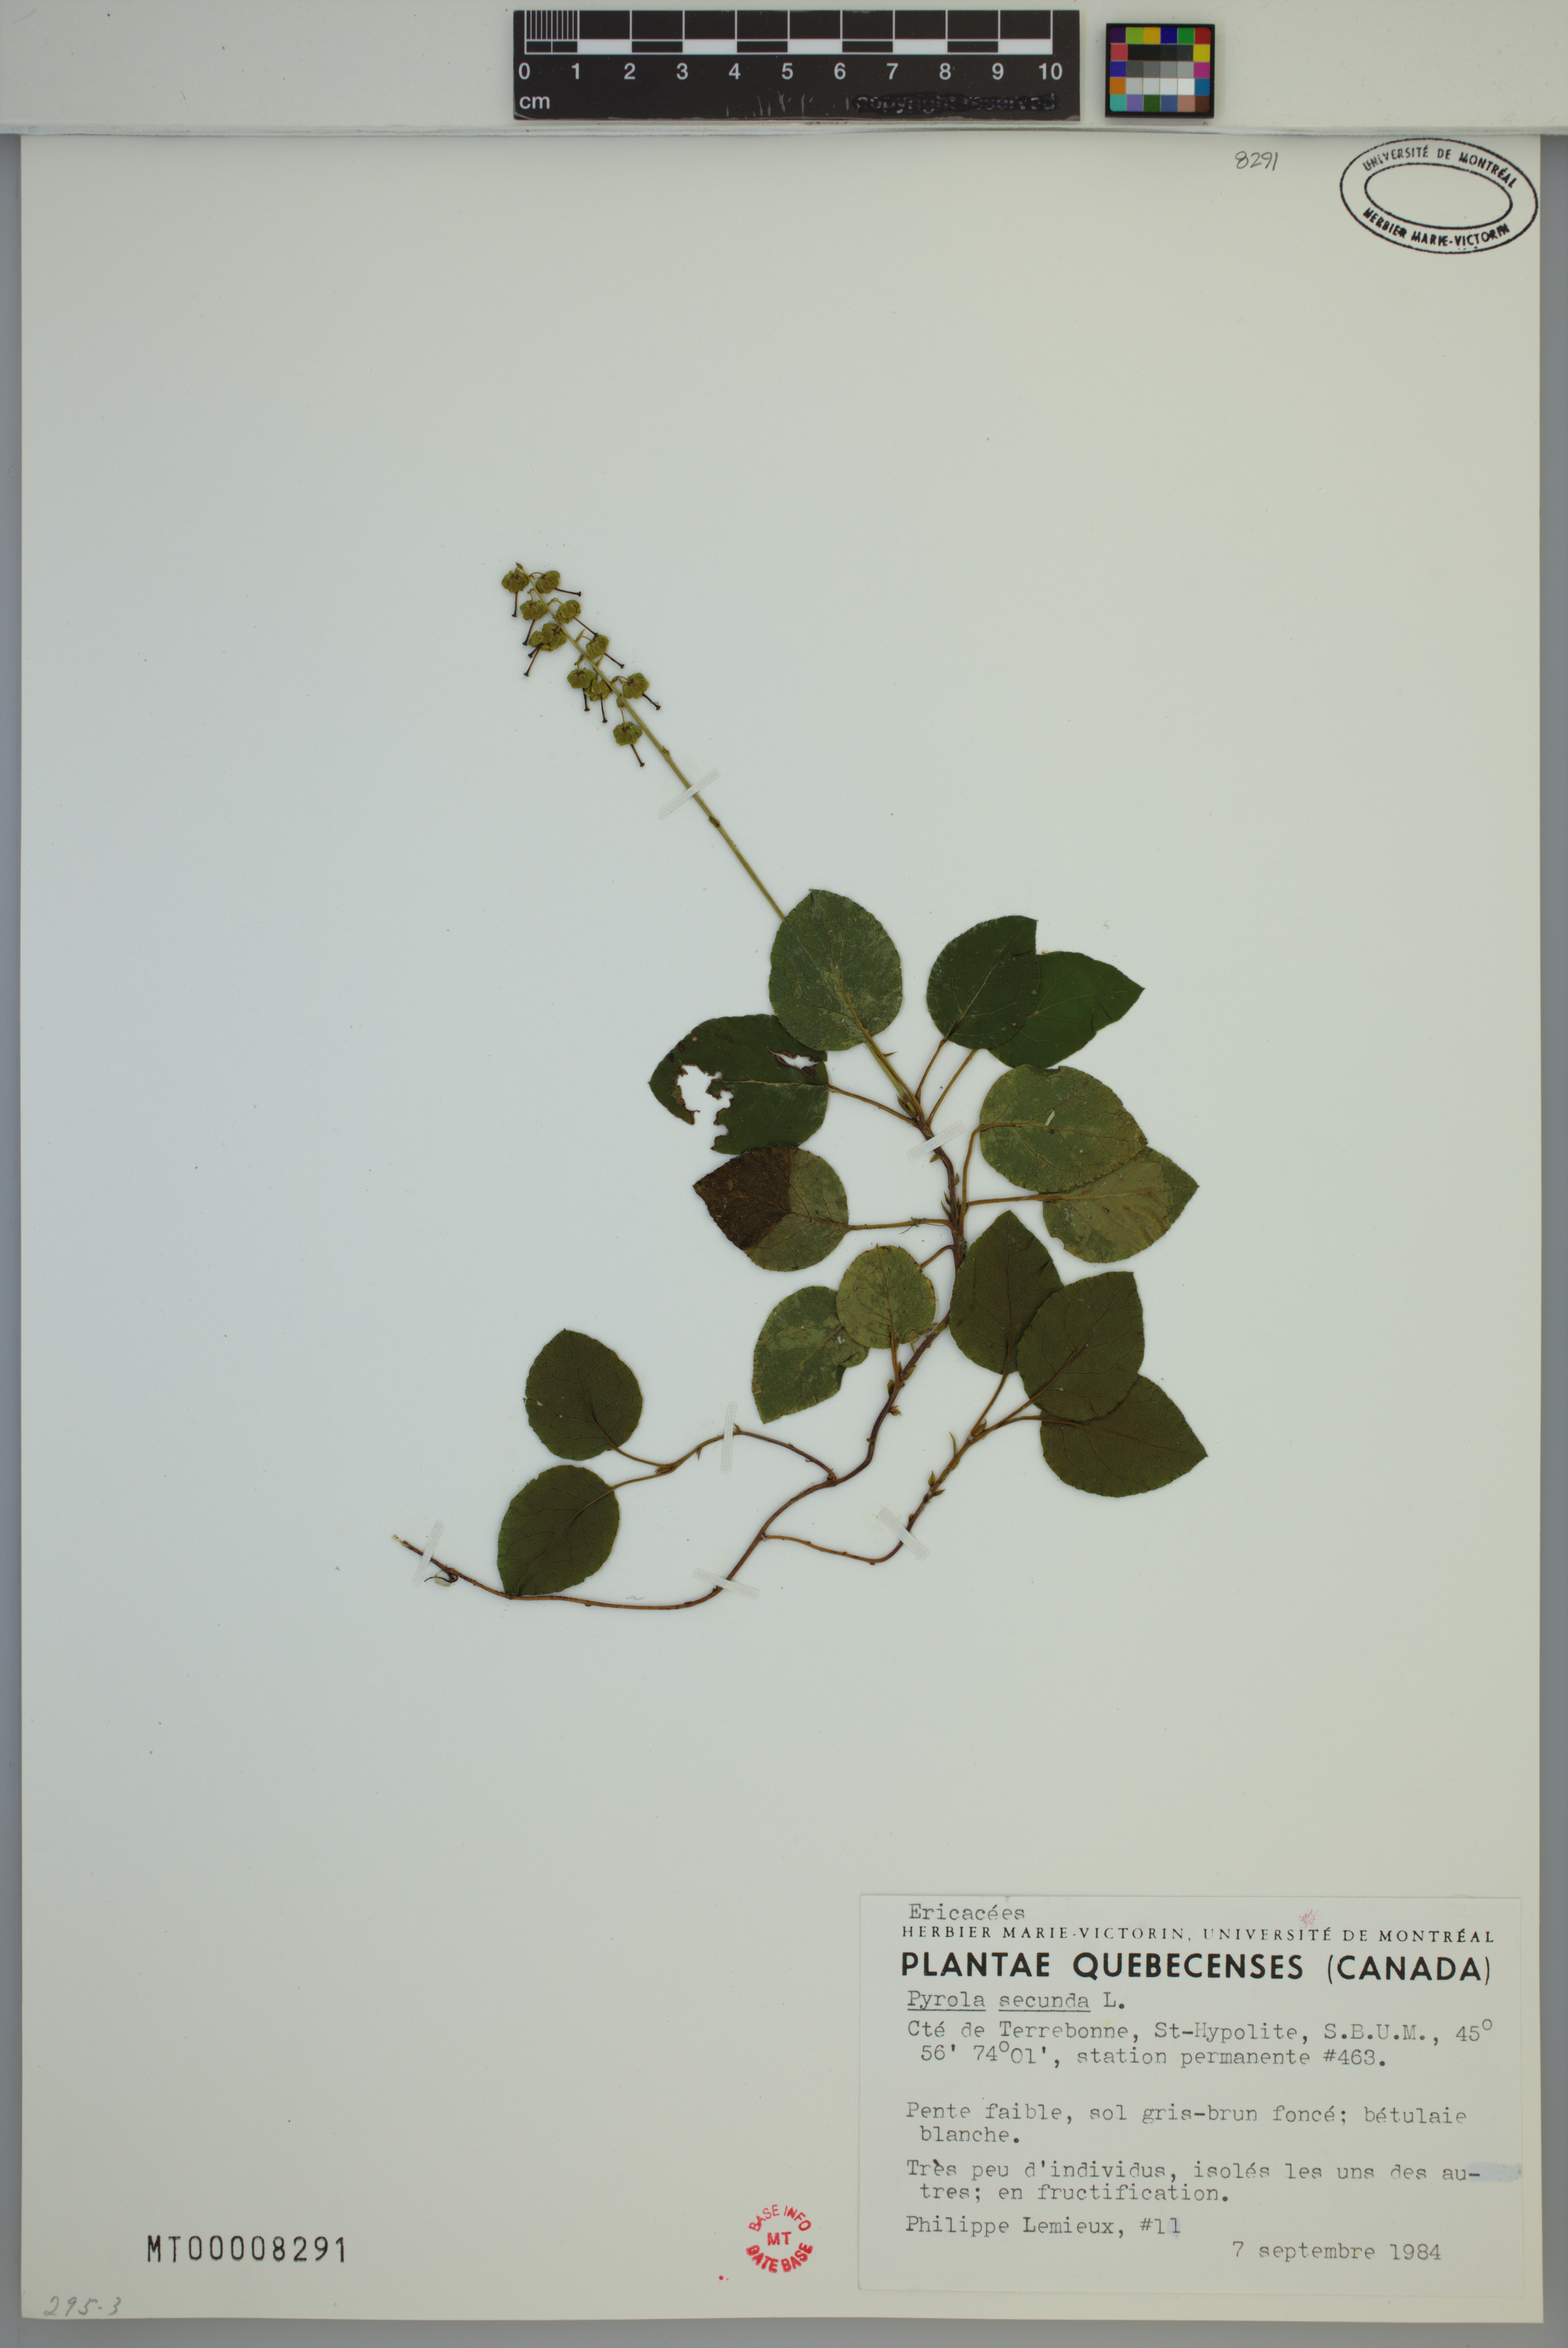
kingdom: Plantae
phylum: Tracheophyta
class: Magnoliopsida
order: Ericales
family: Ericaceae
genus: Orthilia
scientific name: Orthilia secunda
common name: One-sided orthilia
